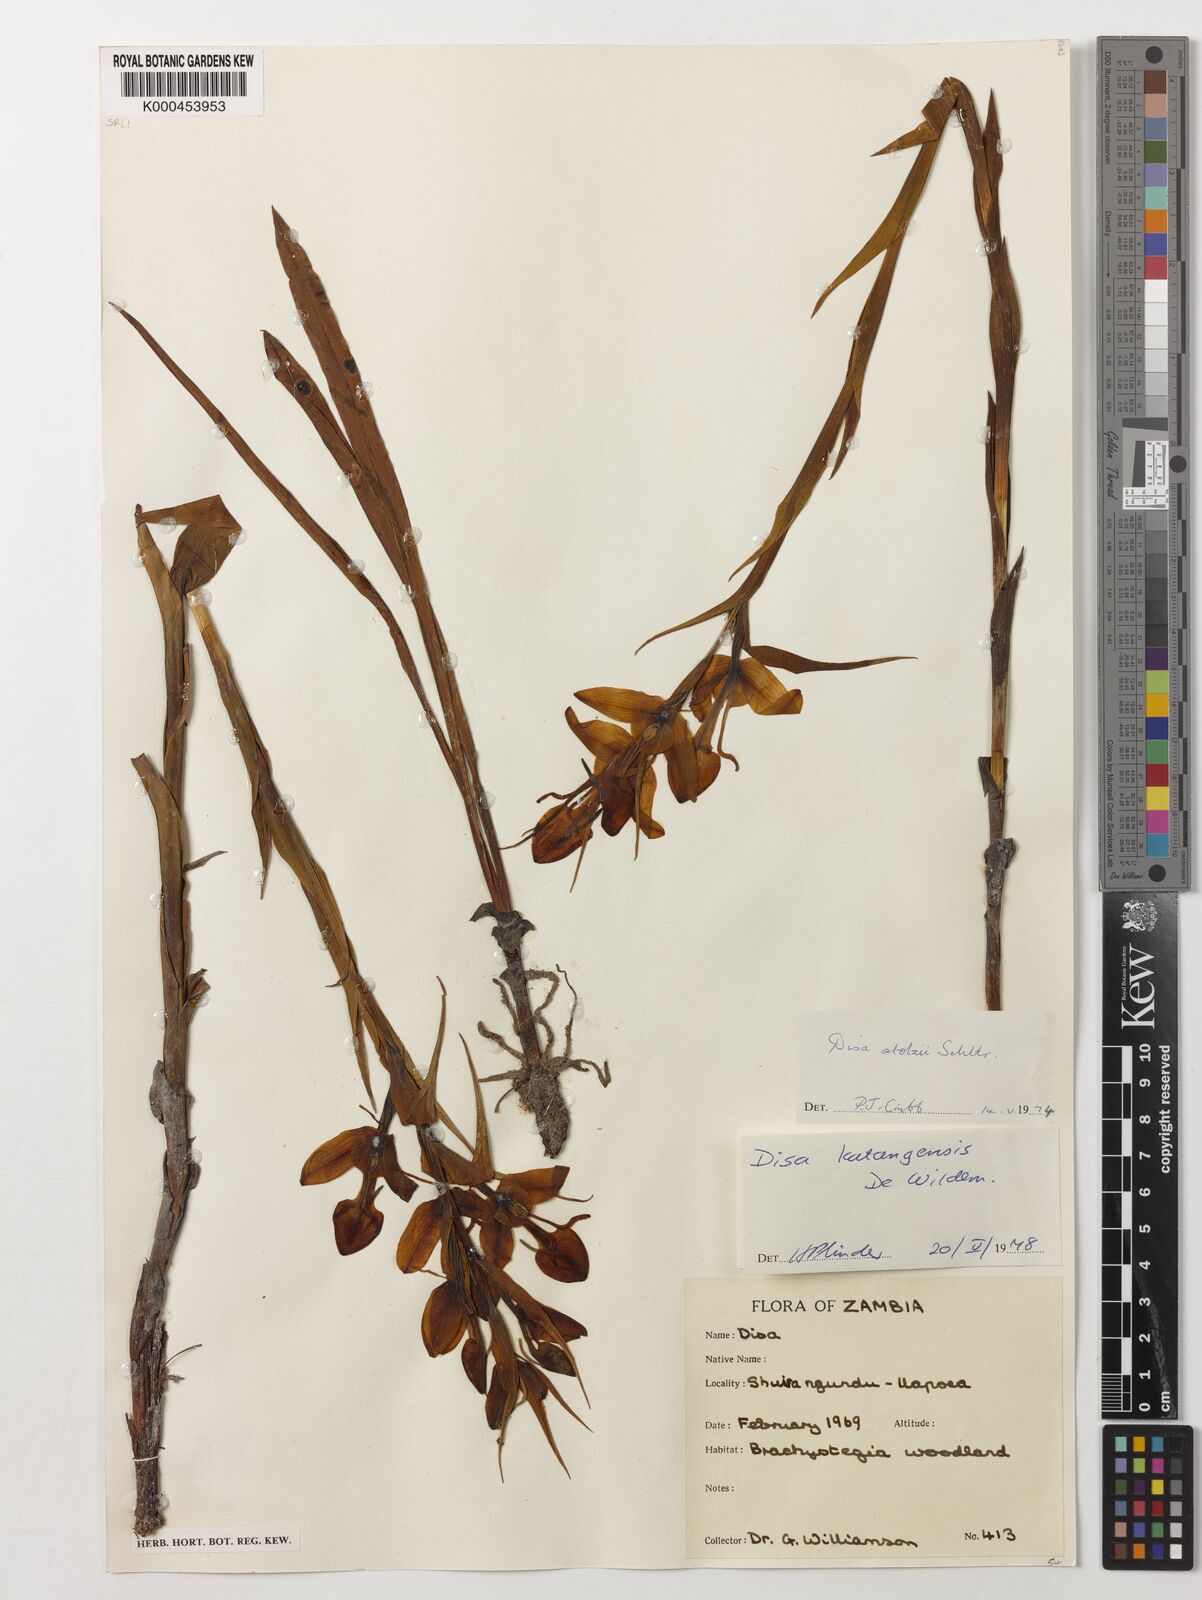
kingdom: Plantae
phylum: Tracheophyta
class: Liliopsida
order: Asparagales
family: Orchidaceae
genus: Disa
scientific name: Disa katangensis
